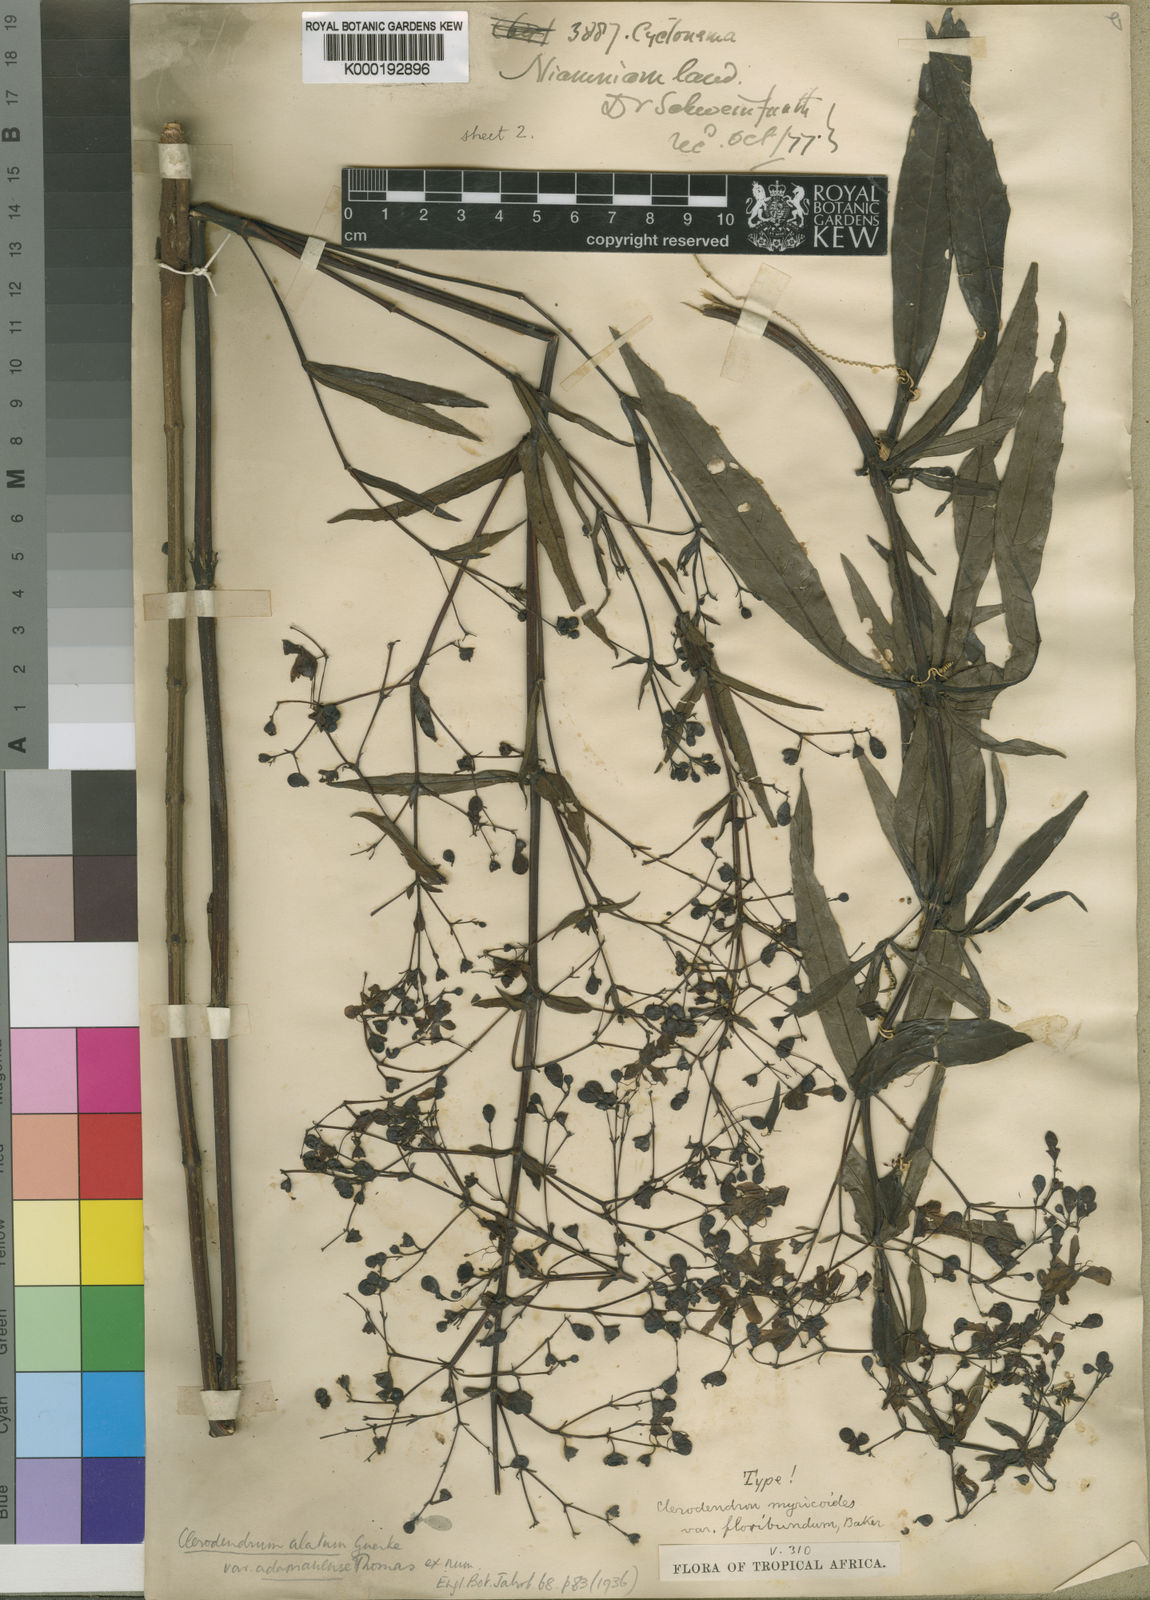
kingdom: Plantae
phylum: Tracheophyta
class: Magnoliopsida
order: Lamiales
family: Lamiaceae
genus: Clerodendrum
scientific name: Clerodendrum
